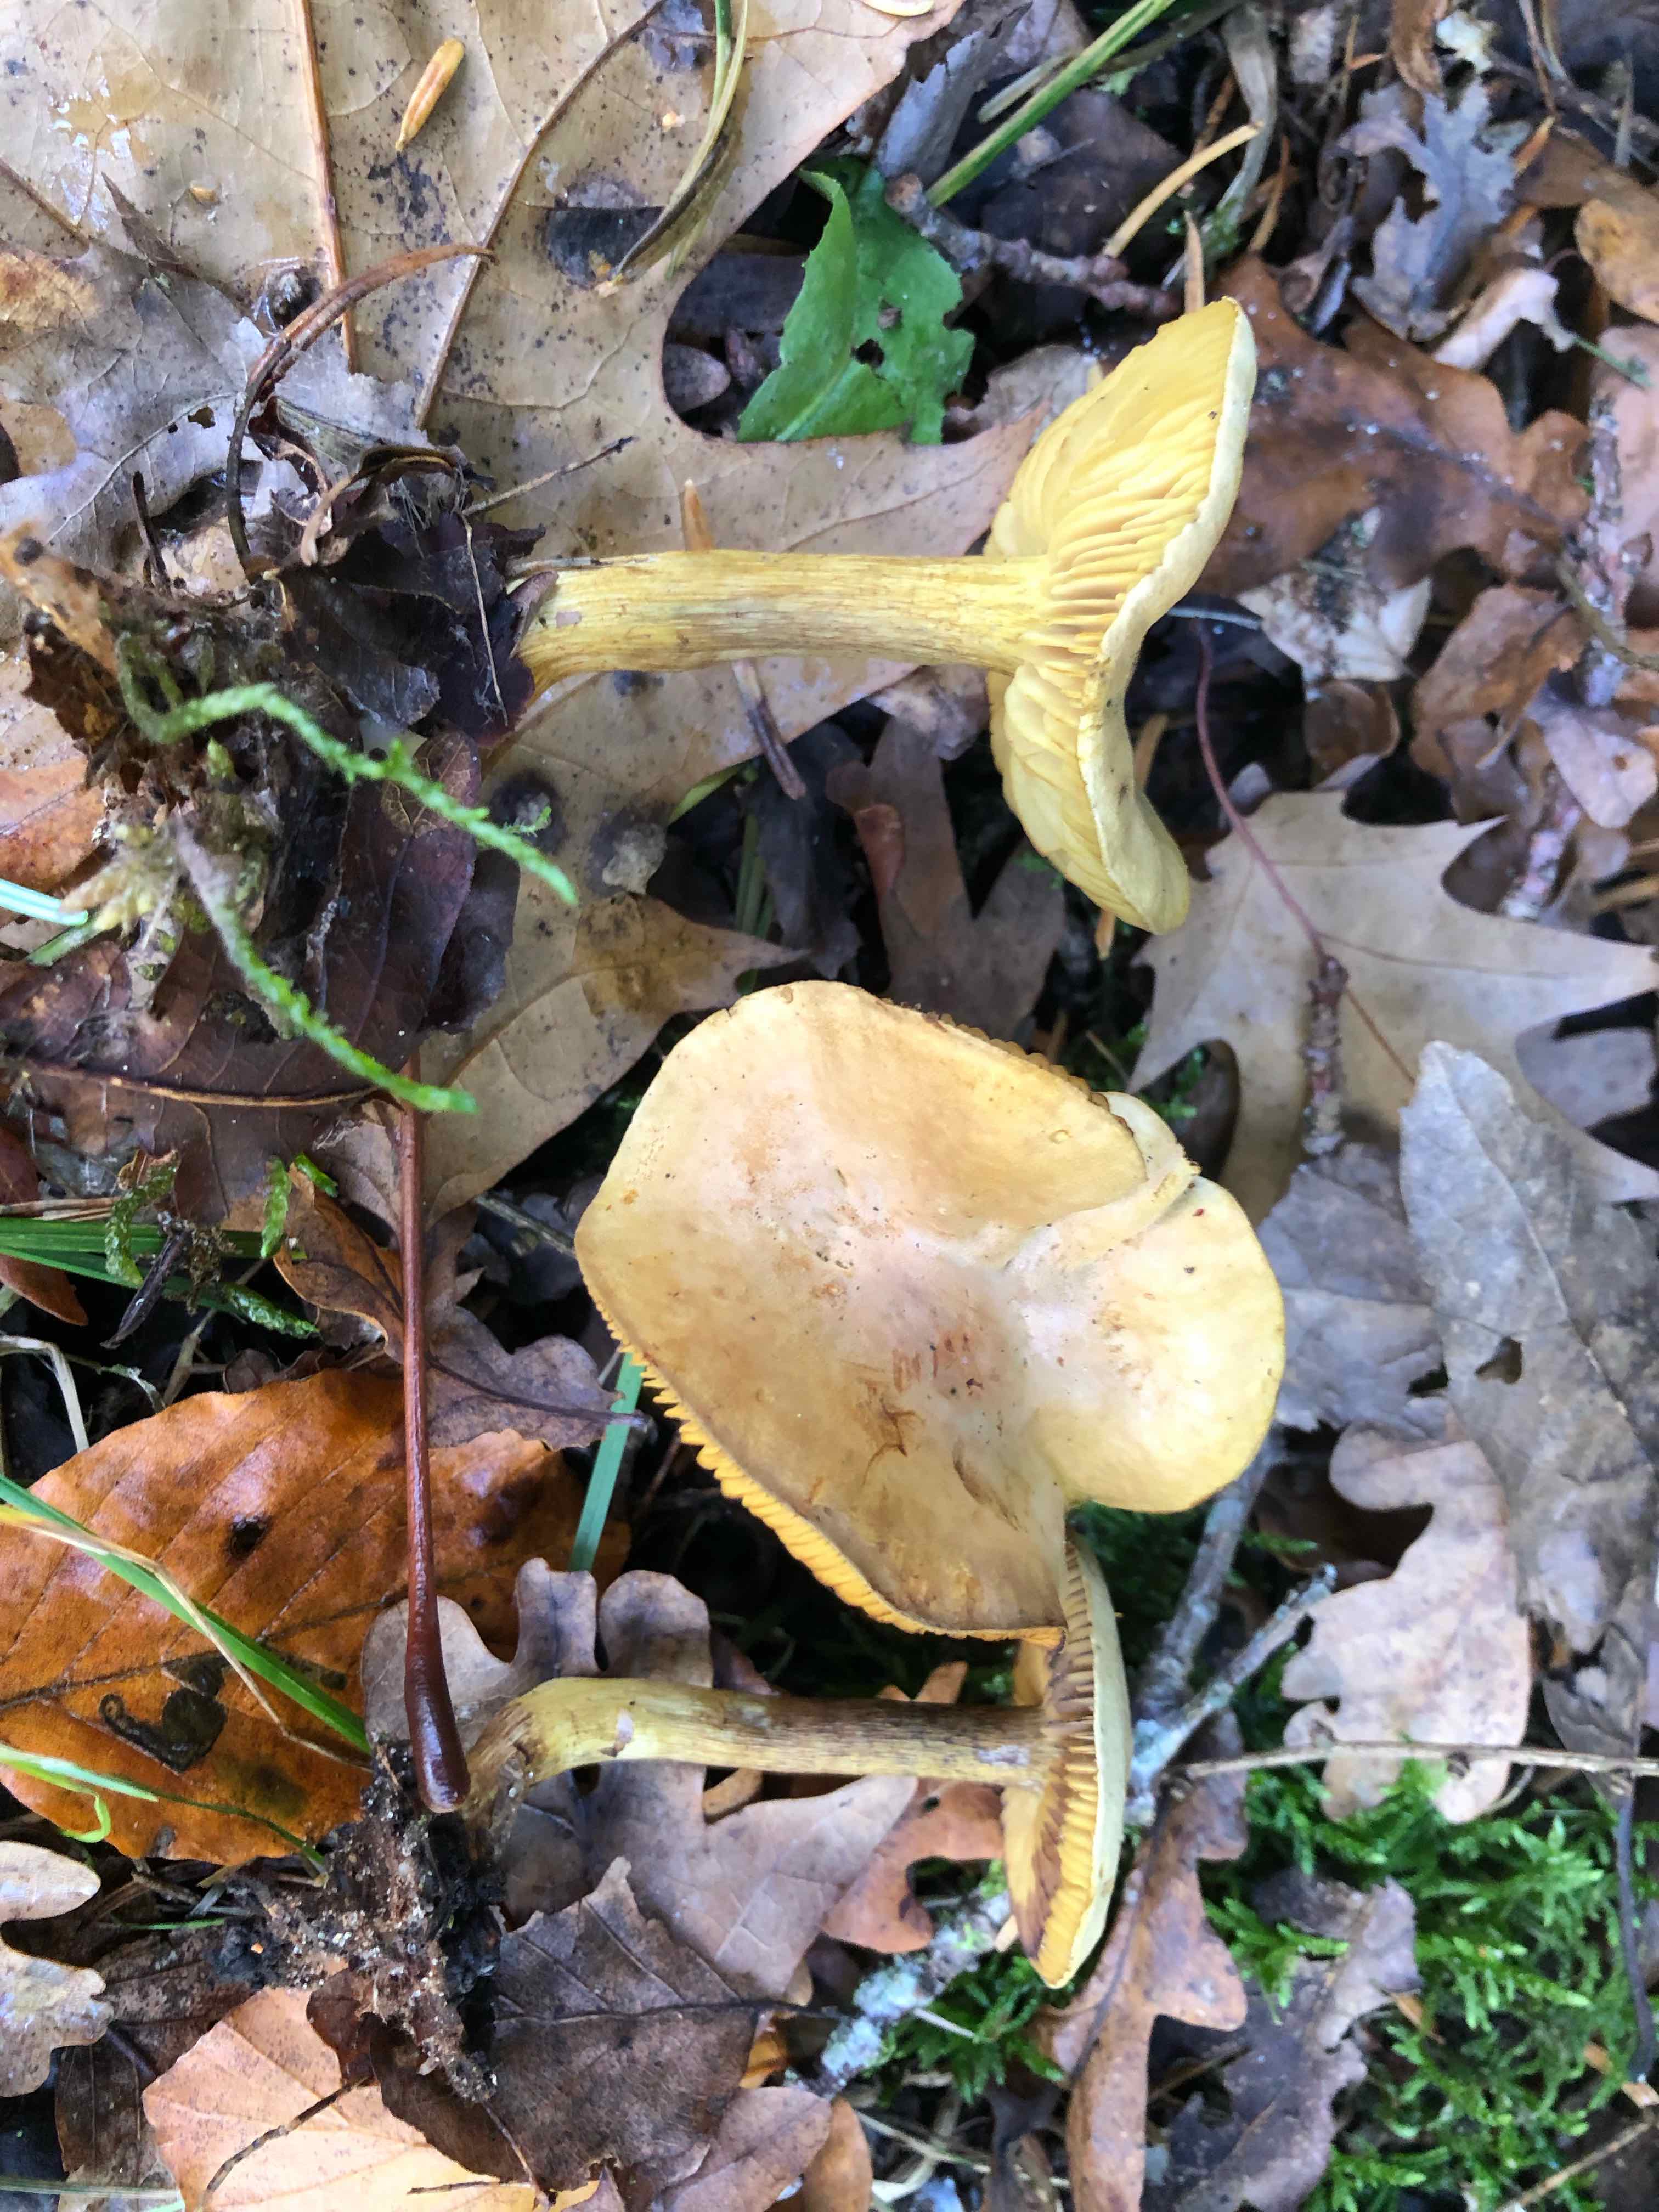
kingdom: Fungi
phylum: Basidiomycota
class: Agaricomycetes
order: Agaricales
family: Tricholomataceae
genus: Tricholoma
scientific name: Tricholoma sulphureum
